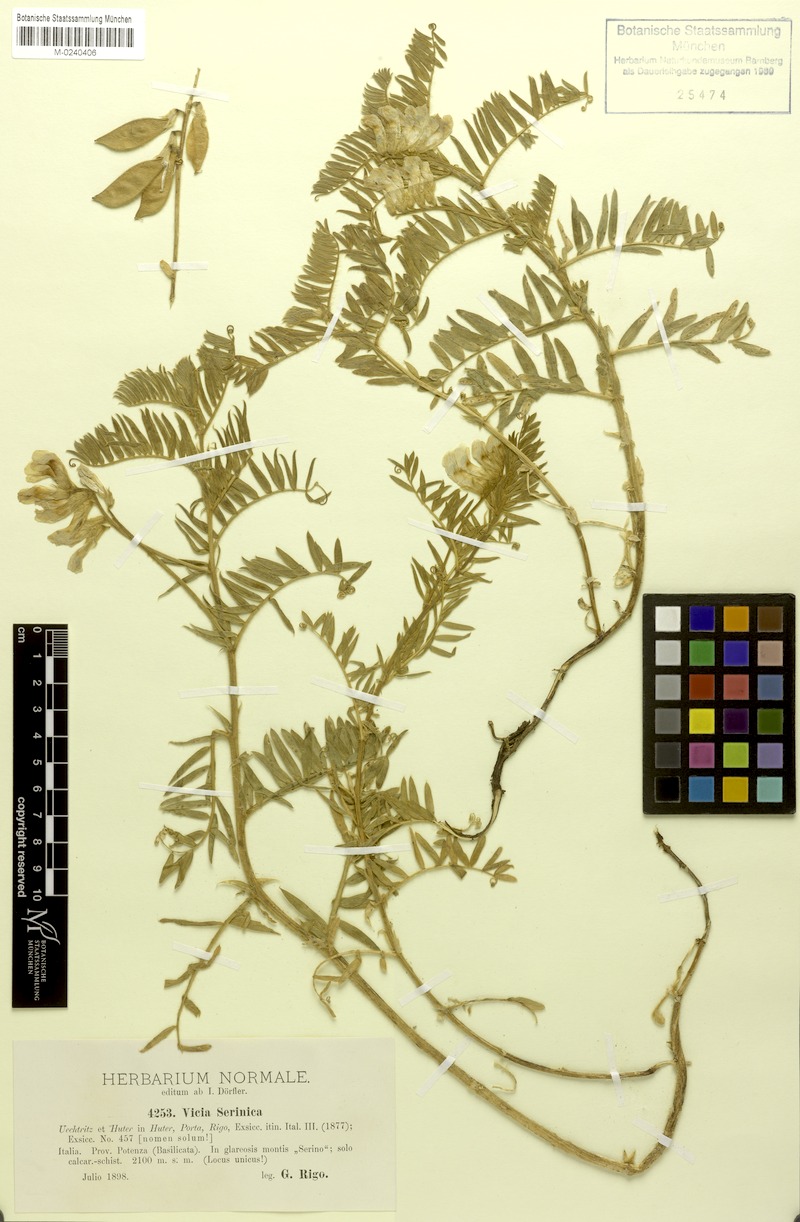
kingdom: Plantae
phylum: Tracheophyta
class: Magnoliopsida
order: Fabales
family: Fabaceae
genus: Vicia
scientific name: Vicia canescens
